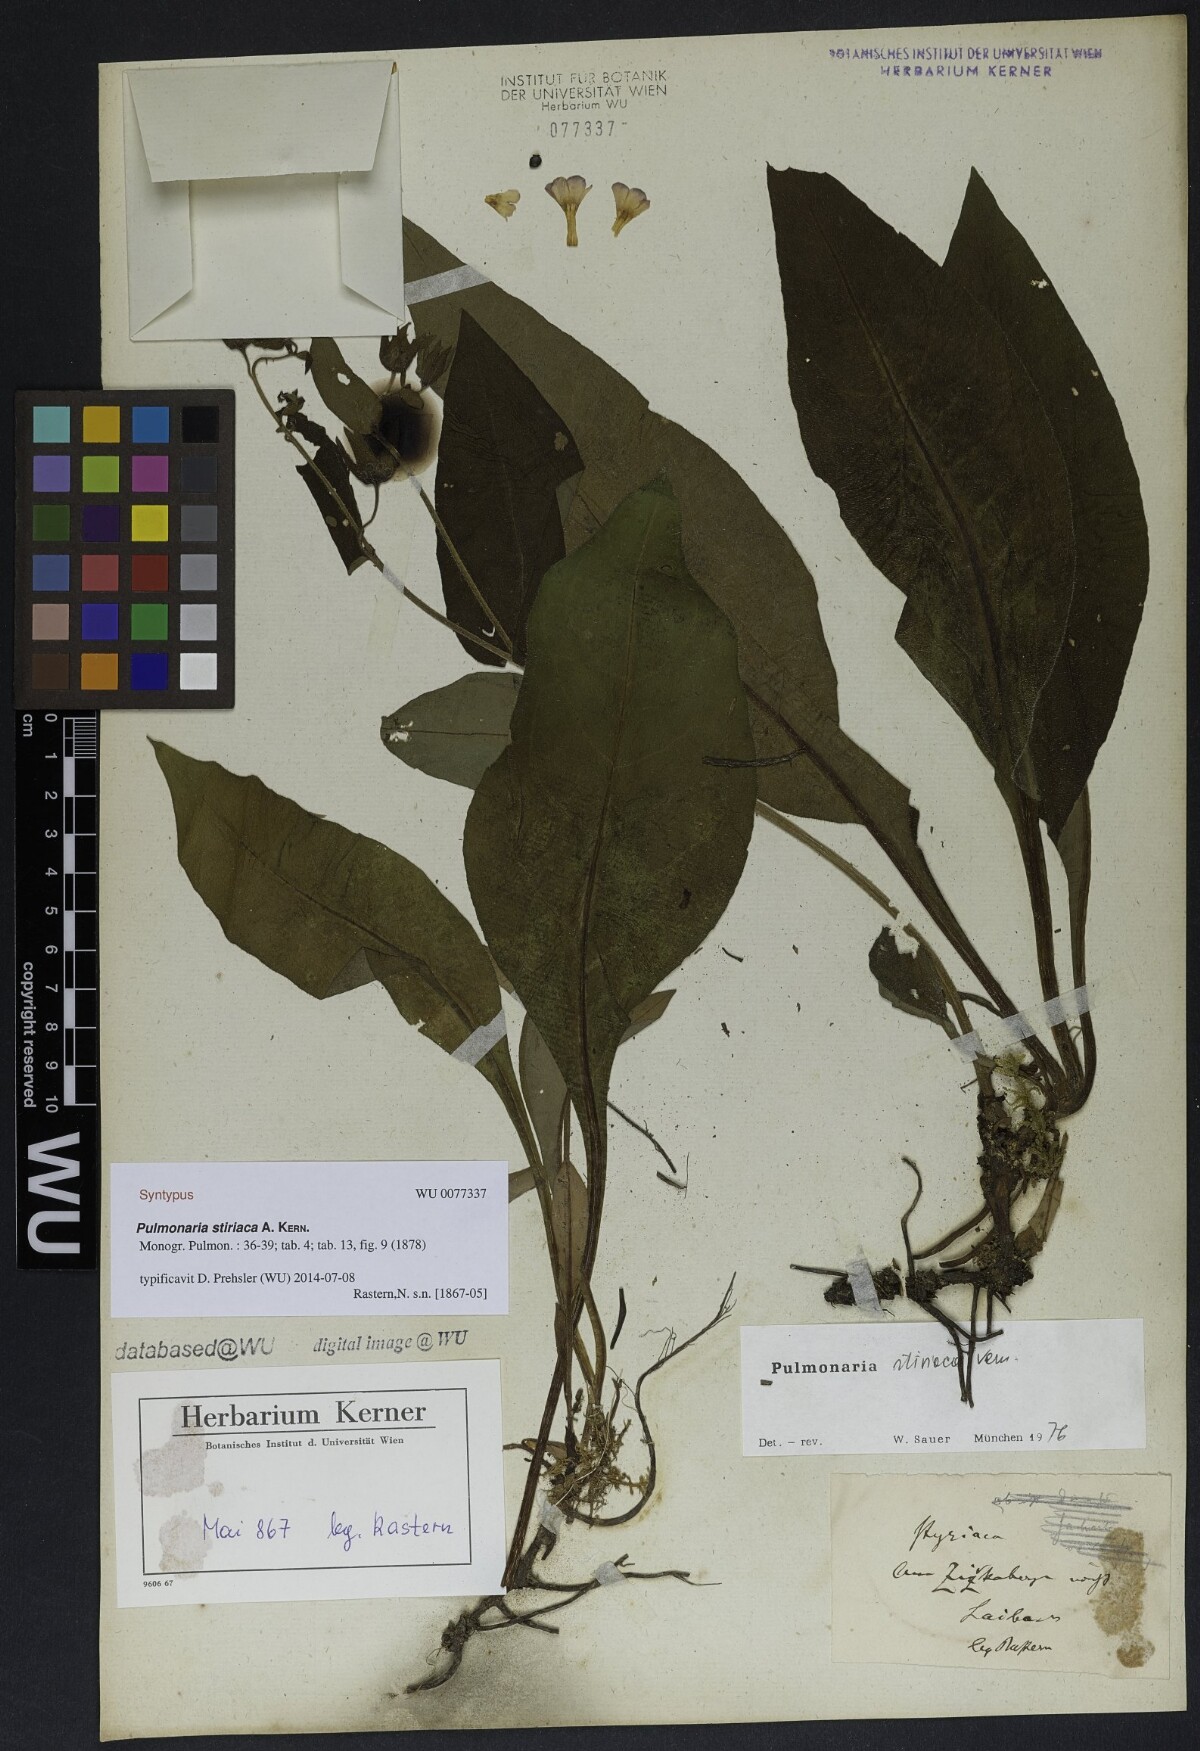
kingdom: Plantae
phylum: Tracheophyta
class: Magnoliopsida
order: Boraginales
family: Boraginaceae
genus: Pulmonaria
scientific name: Pulmonaria stiriaca
